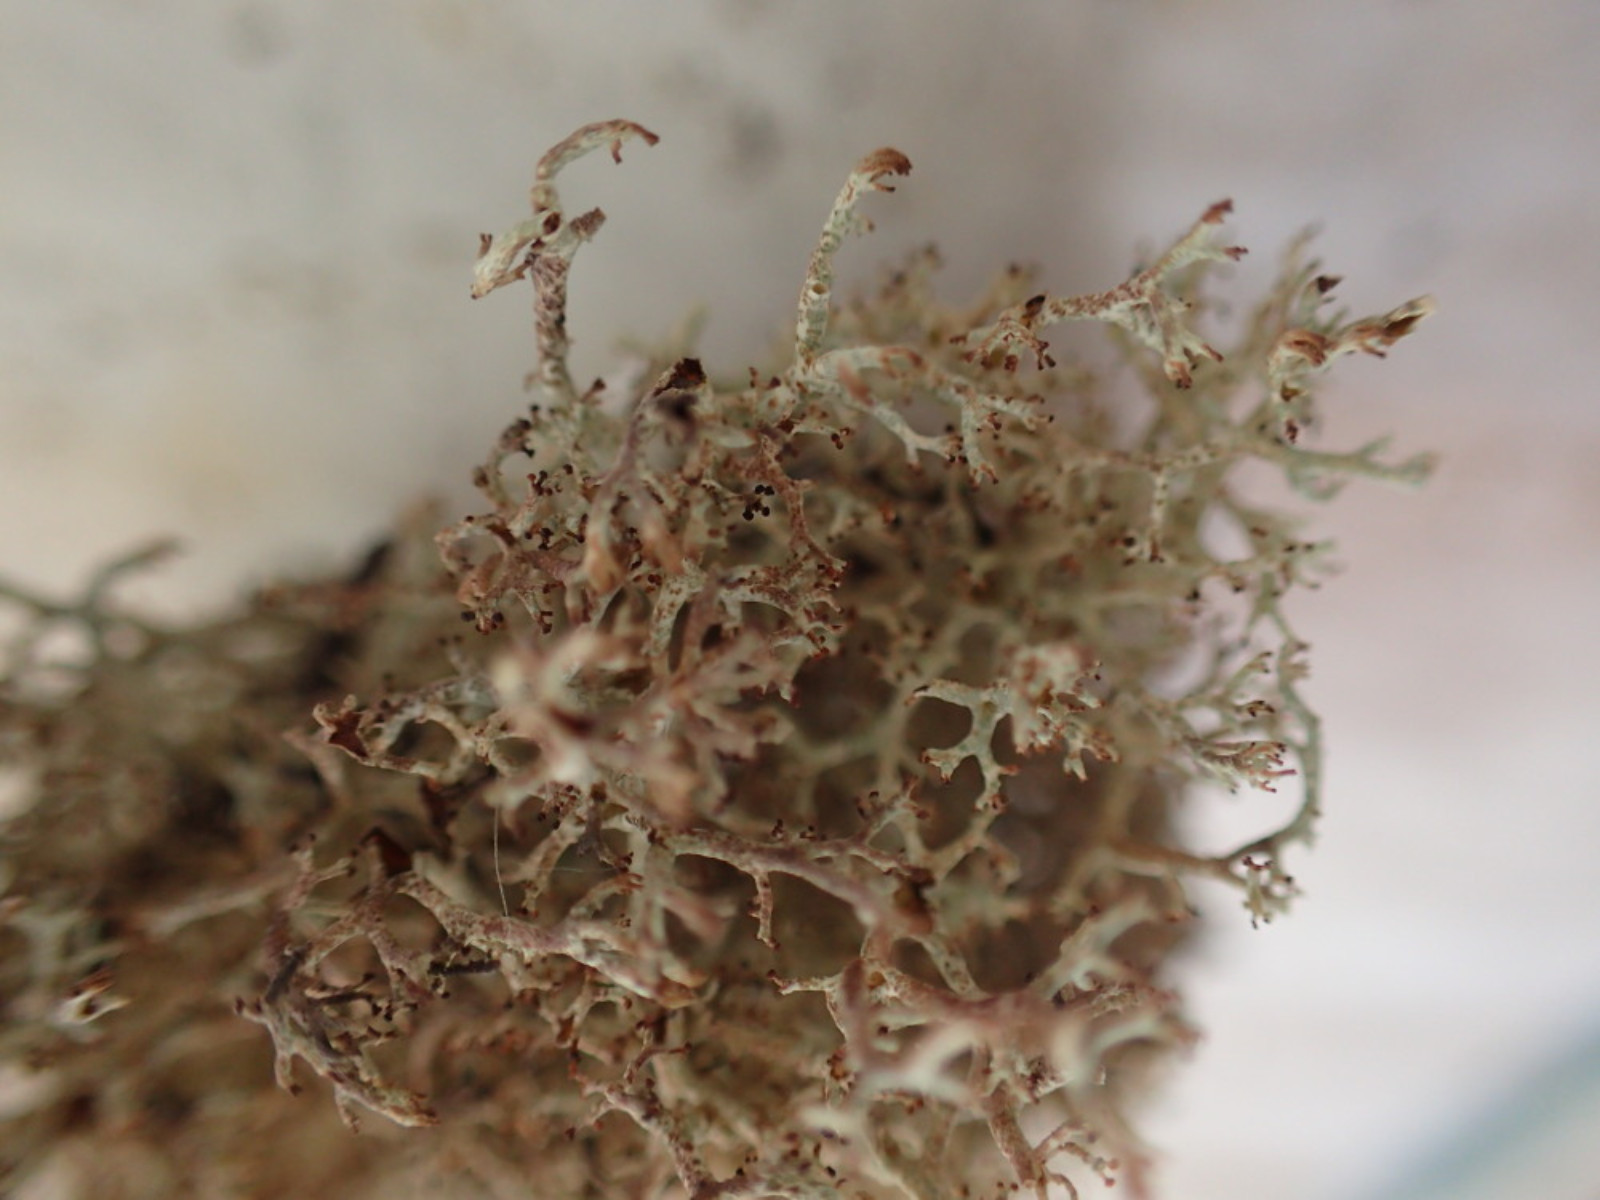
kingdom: Fungi
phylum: Ascomycota
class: Lecanoromycetes
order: Lecanorales
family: Cladoniaceae
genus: Cladonia
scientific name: Cladonia ciliata
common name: spinkel rensdyrlav
